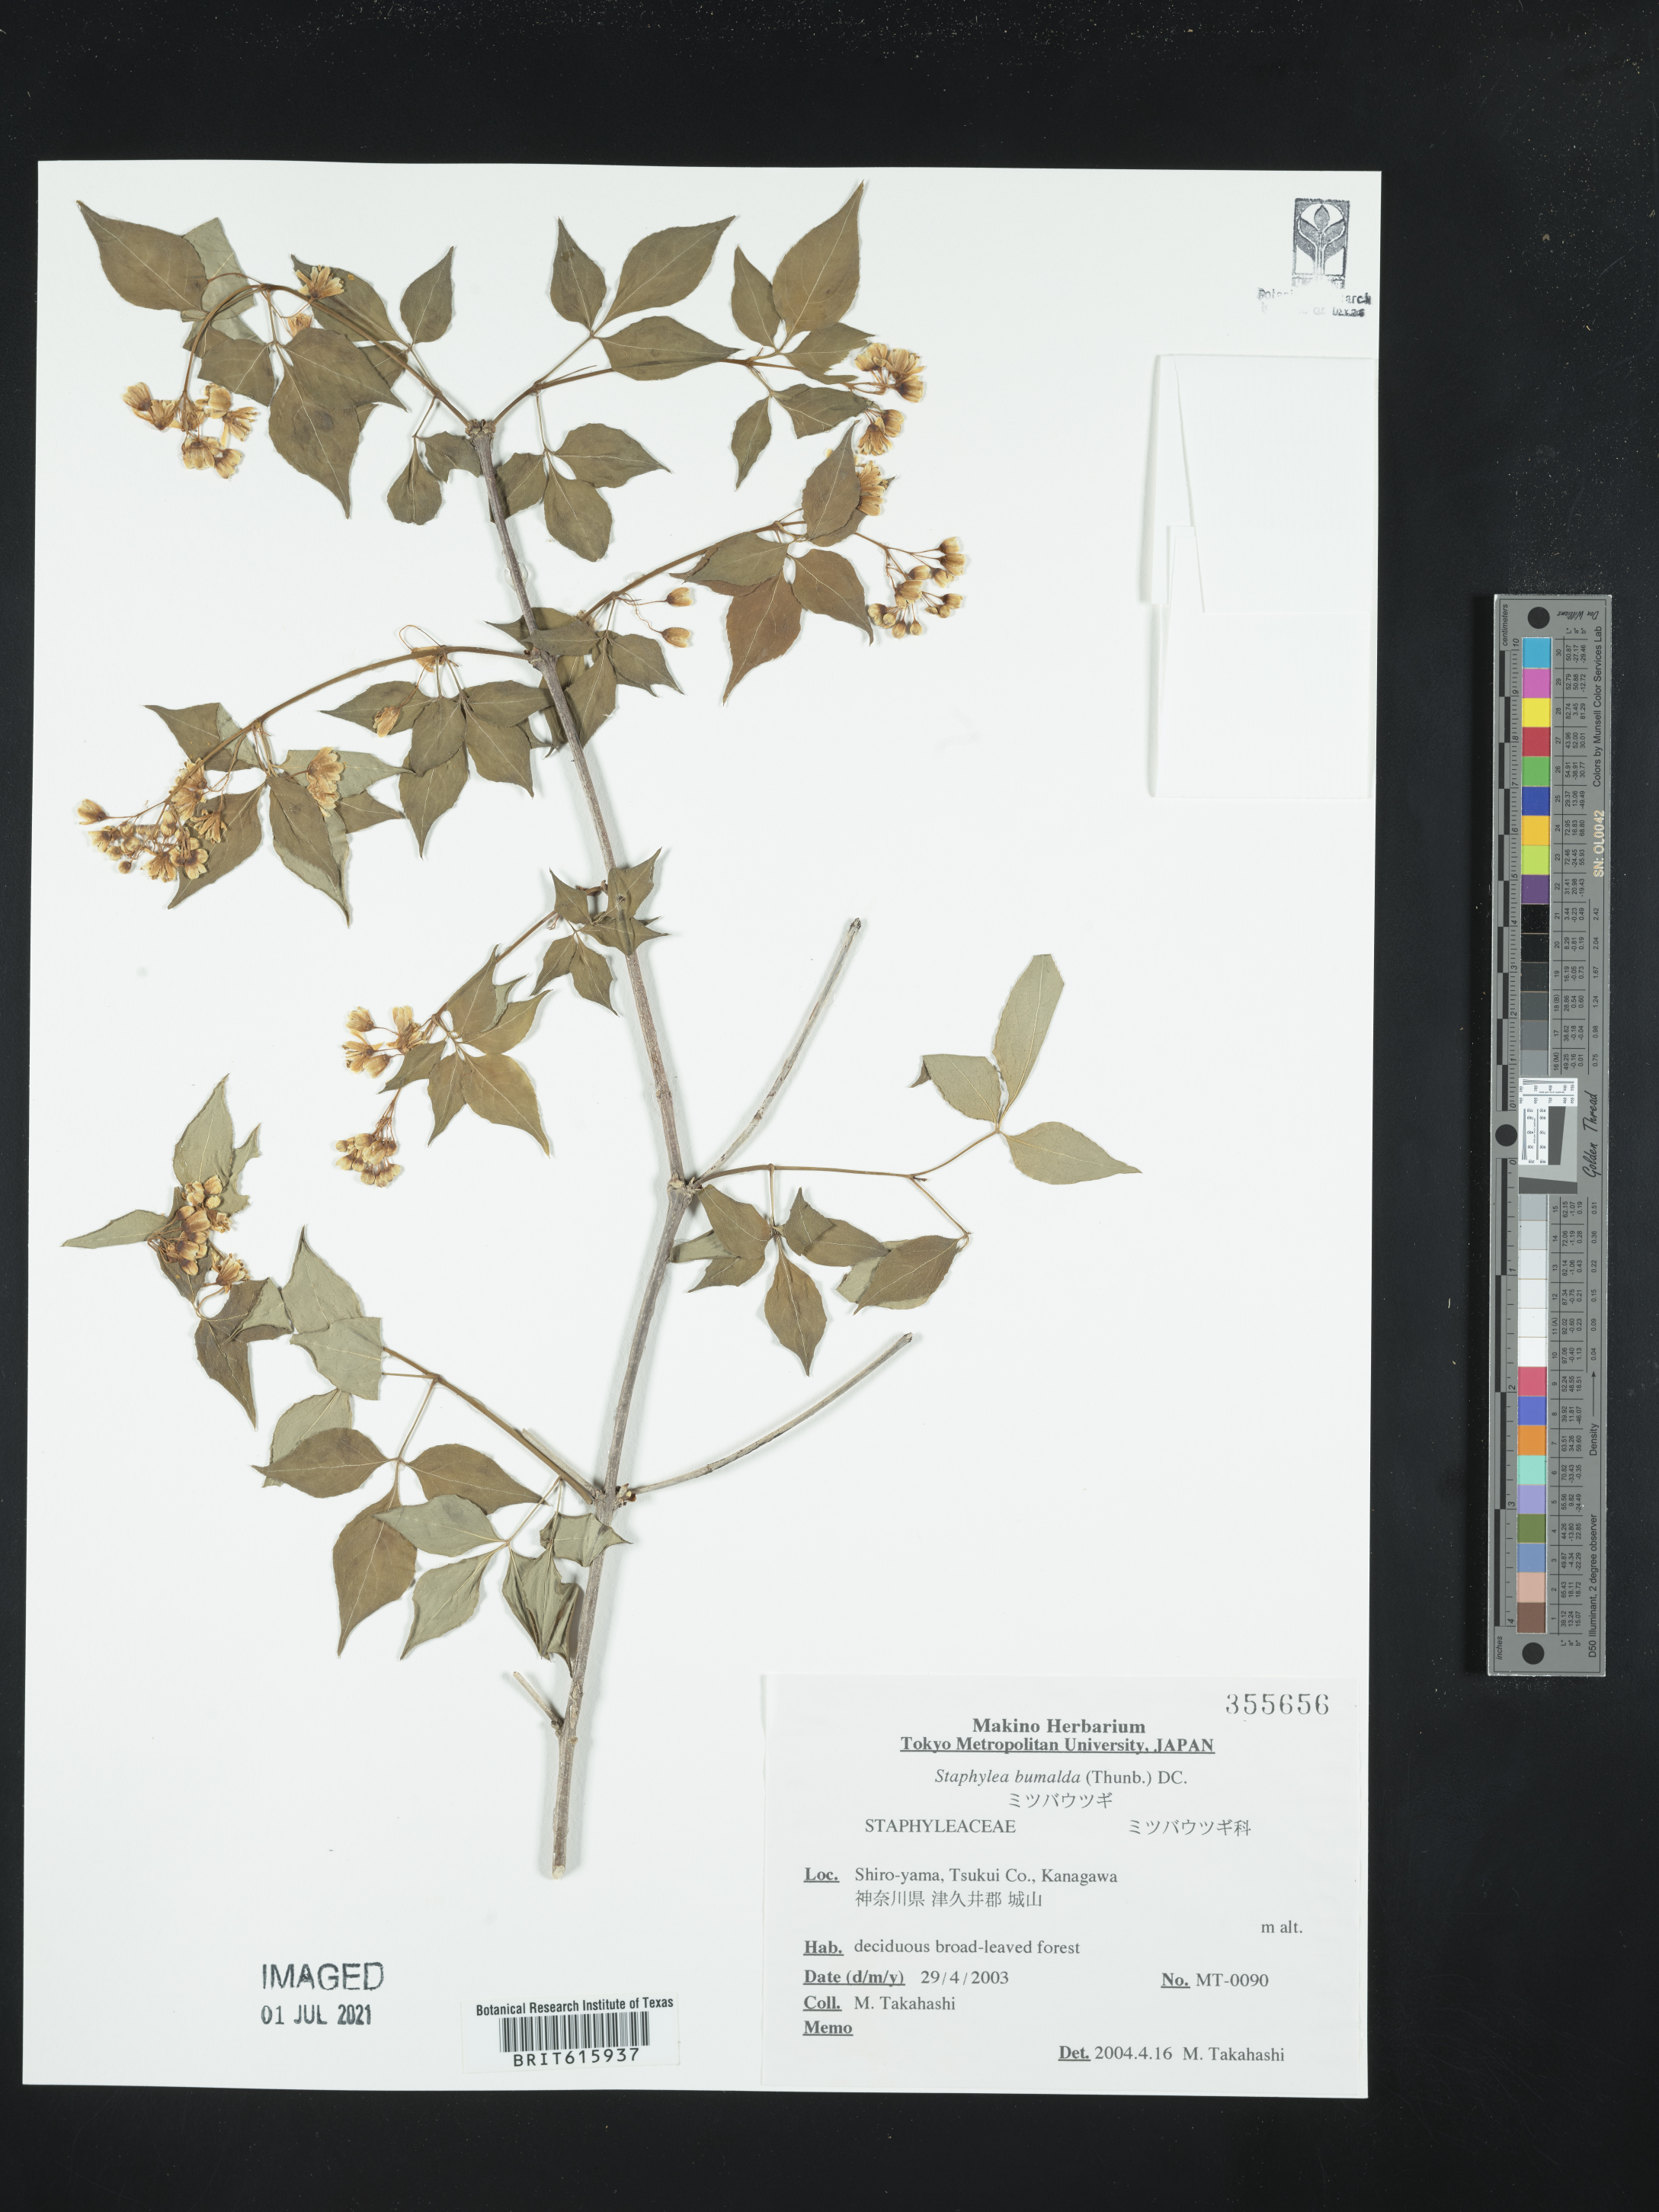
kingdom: Plantae
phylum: Tracheophyta
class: Magnoliopsida
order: Crossosomatales
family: Staphyleaceae
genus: Staphylea
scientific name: Staphylea bumalda
